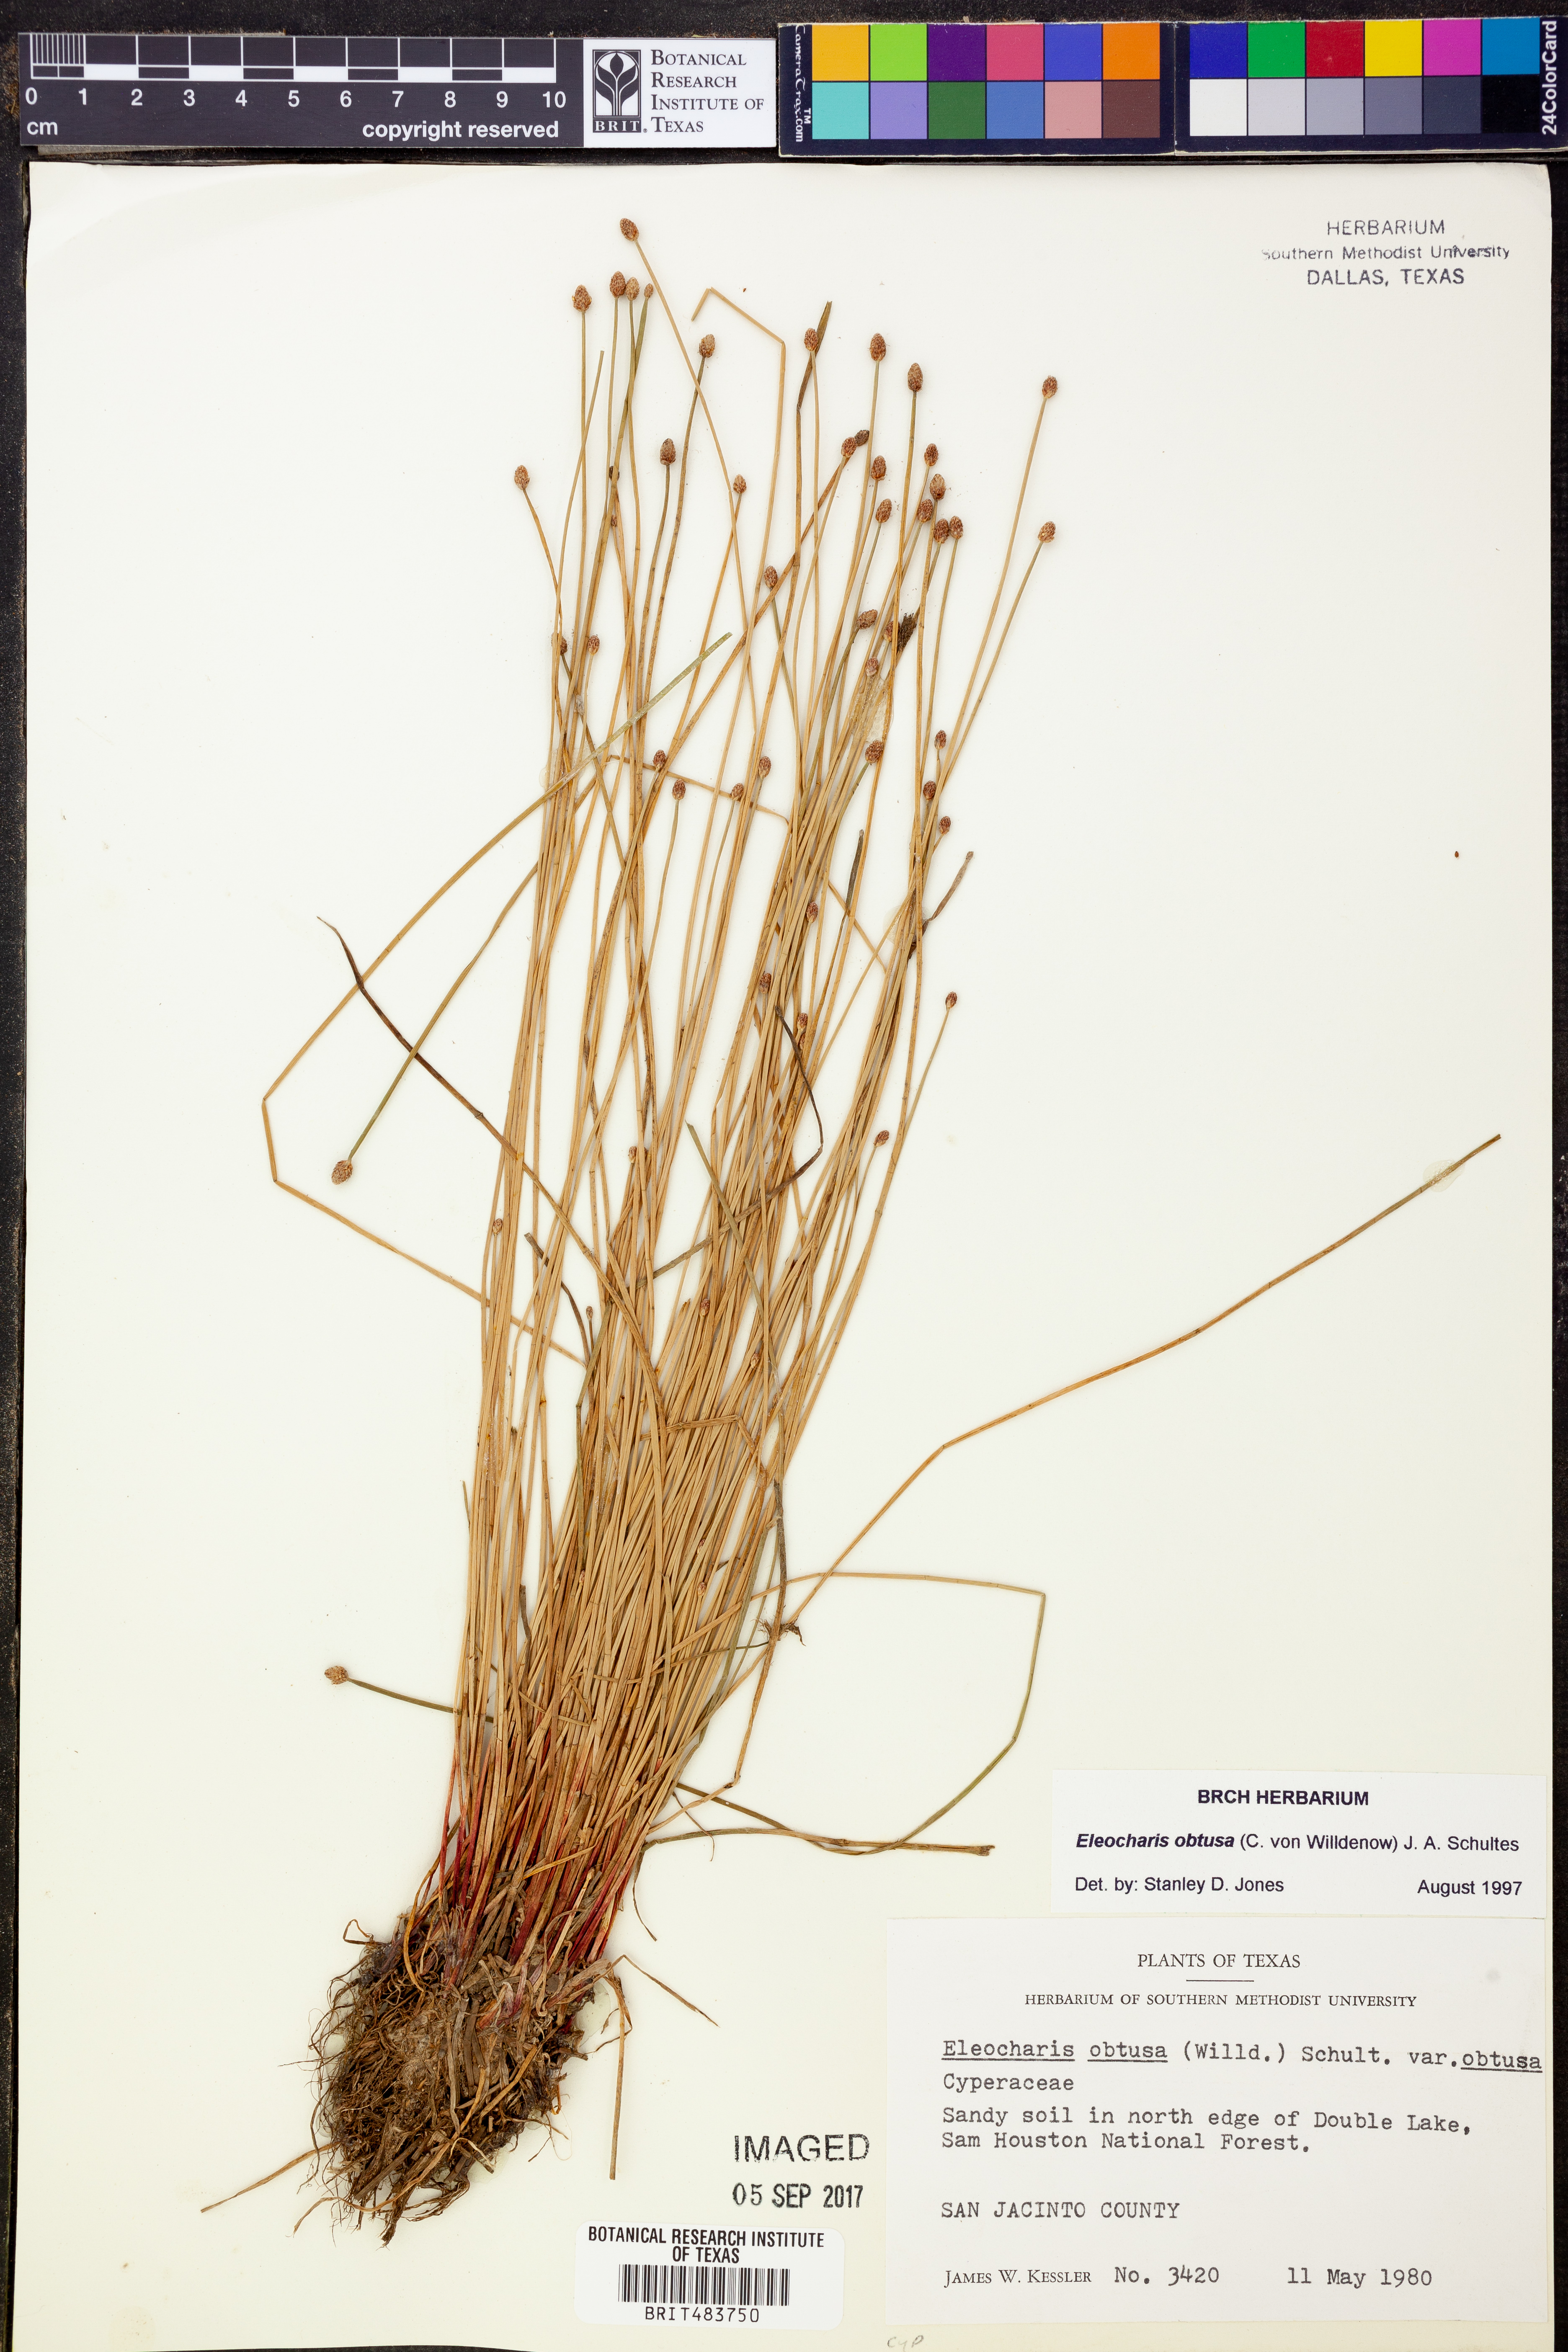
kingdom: Plantae
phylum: Tracheophyta
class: Liliopsida
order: Poales
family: Cyperaceae
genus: Eleocharis
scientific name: Eleocharis obtusa
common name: Blunt spikerush
